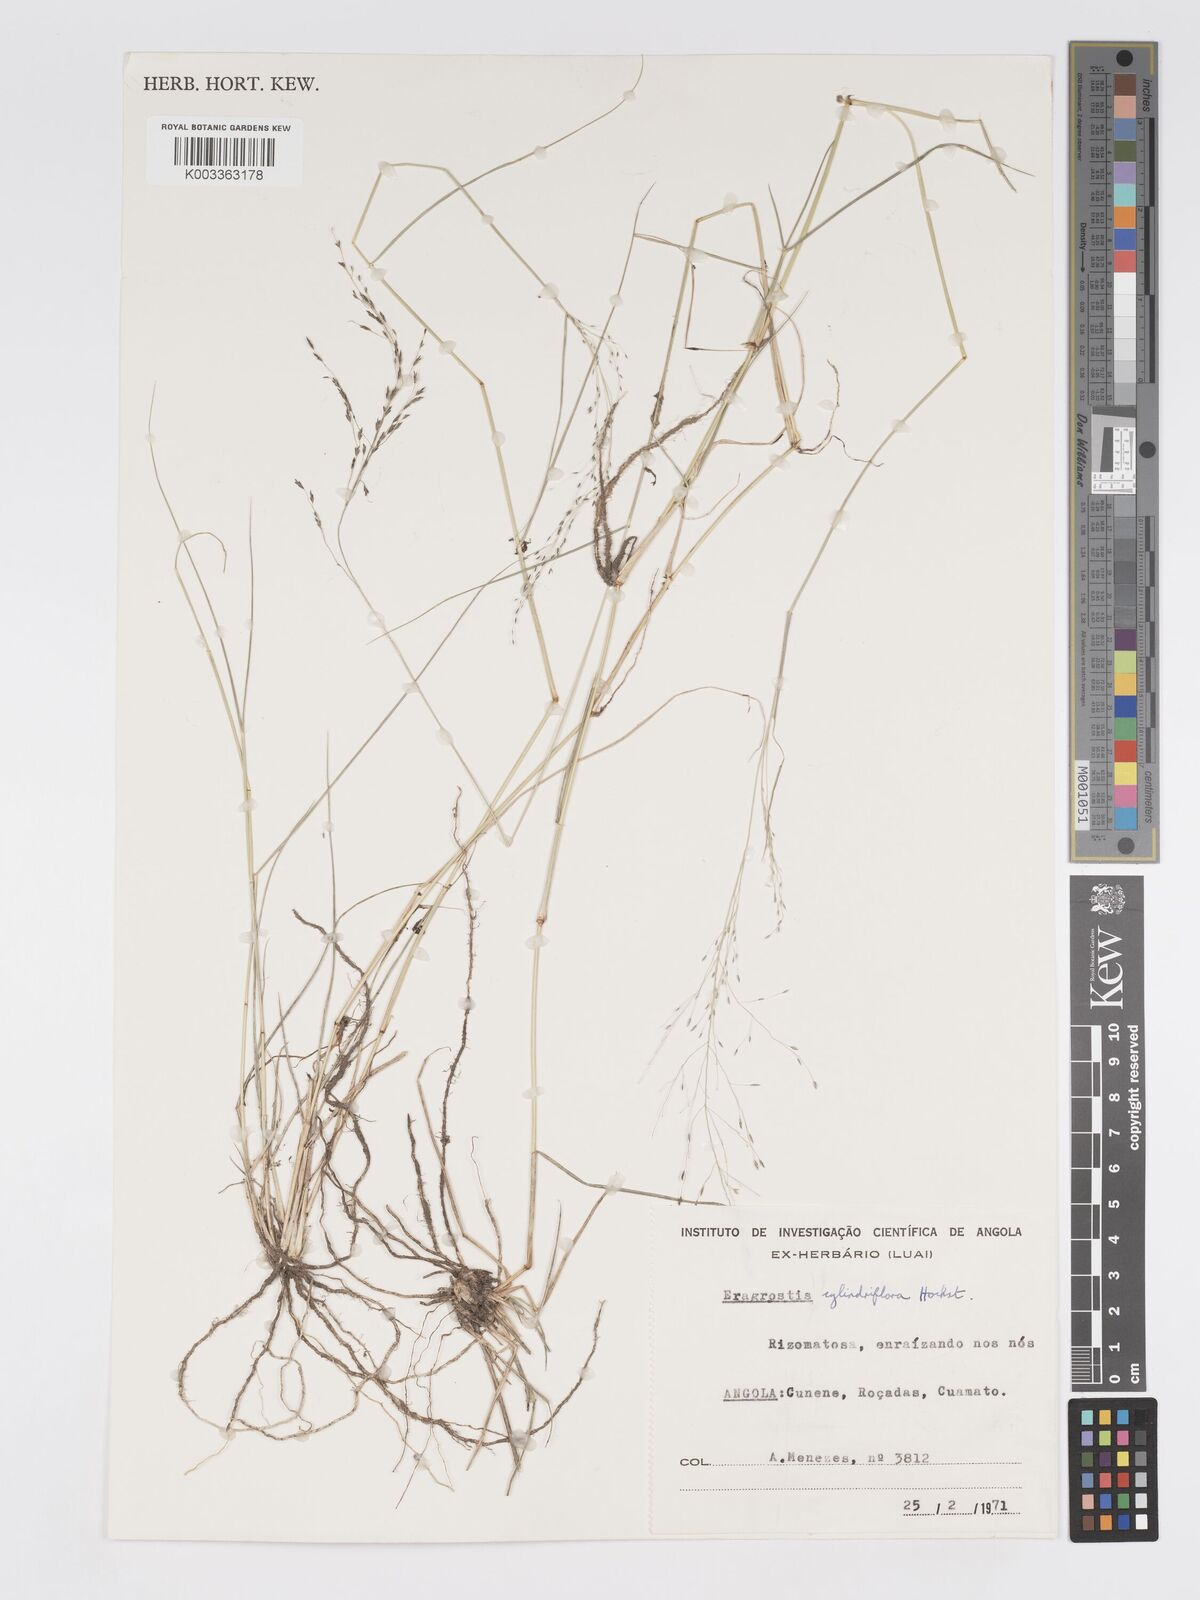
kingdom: Plantae
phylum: Tracheophyta
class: Liliopsida
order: Poales
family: Poaceae
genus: Eragrostis
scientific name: Eragrostis cylindriflora
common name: Cylinderflower lovegrass
